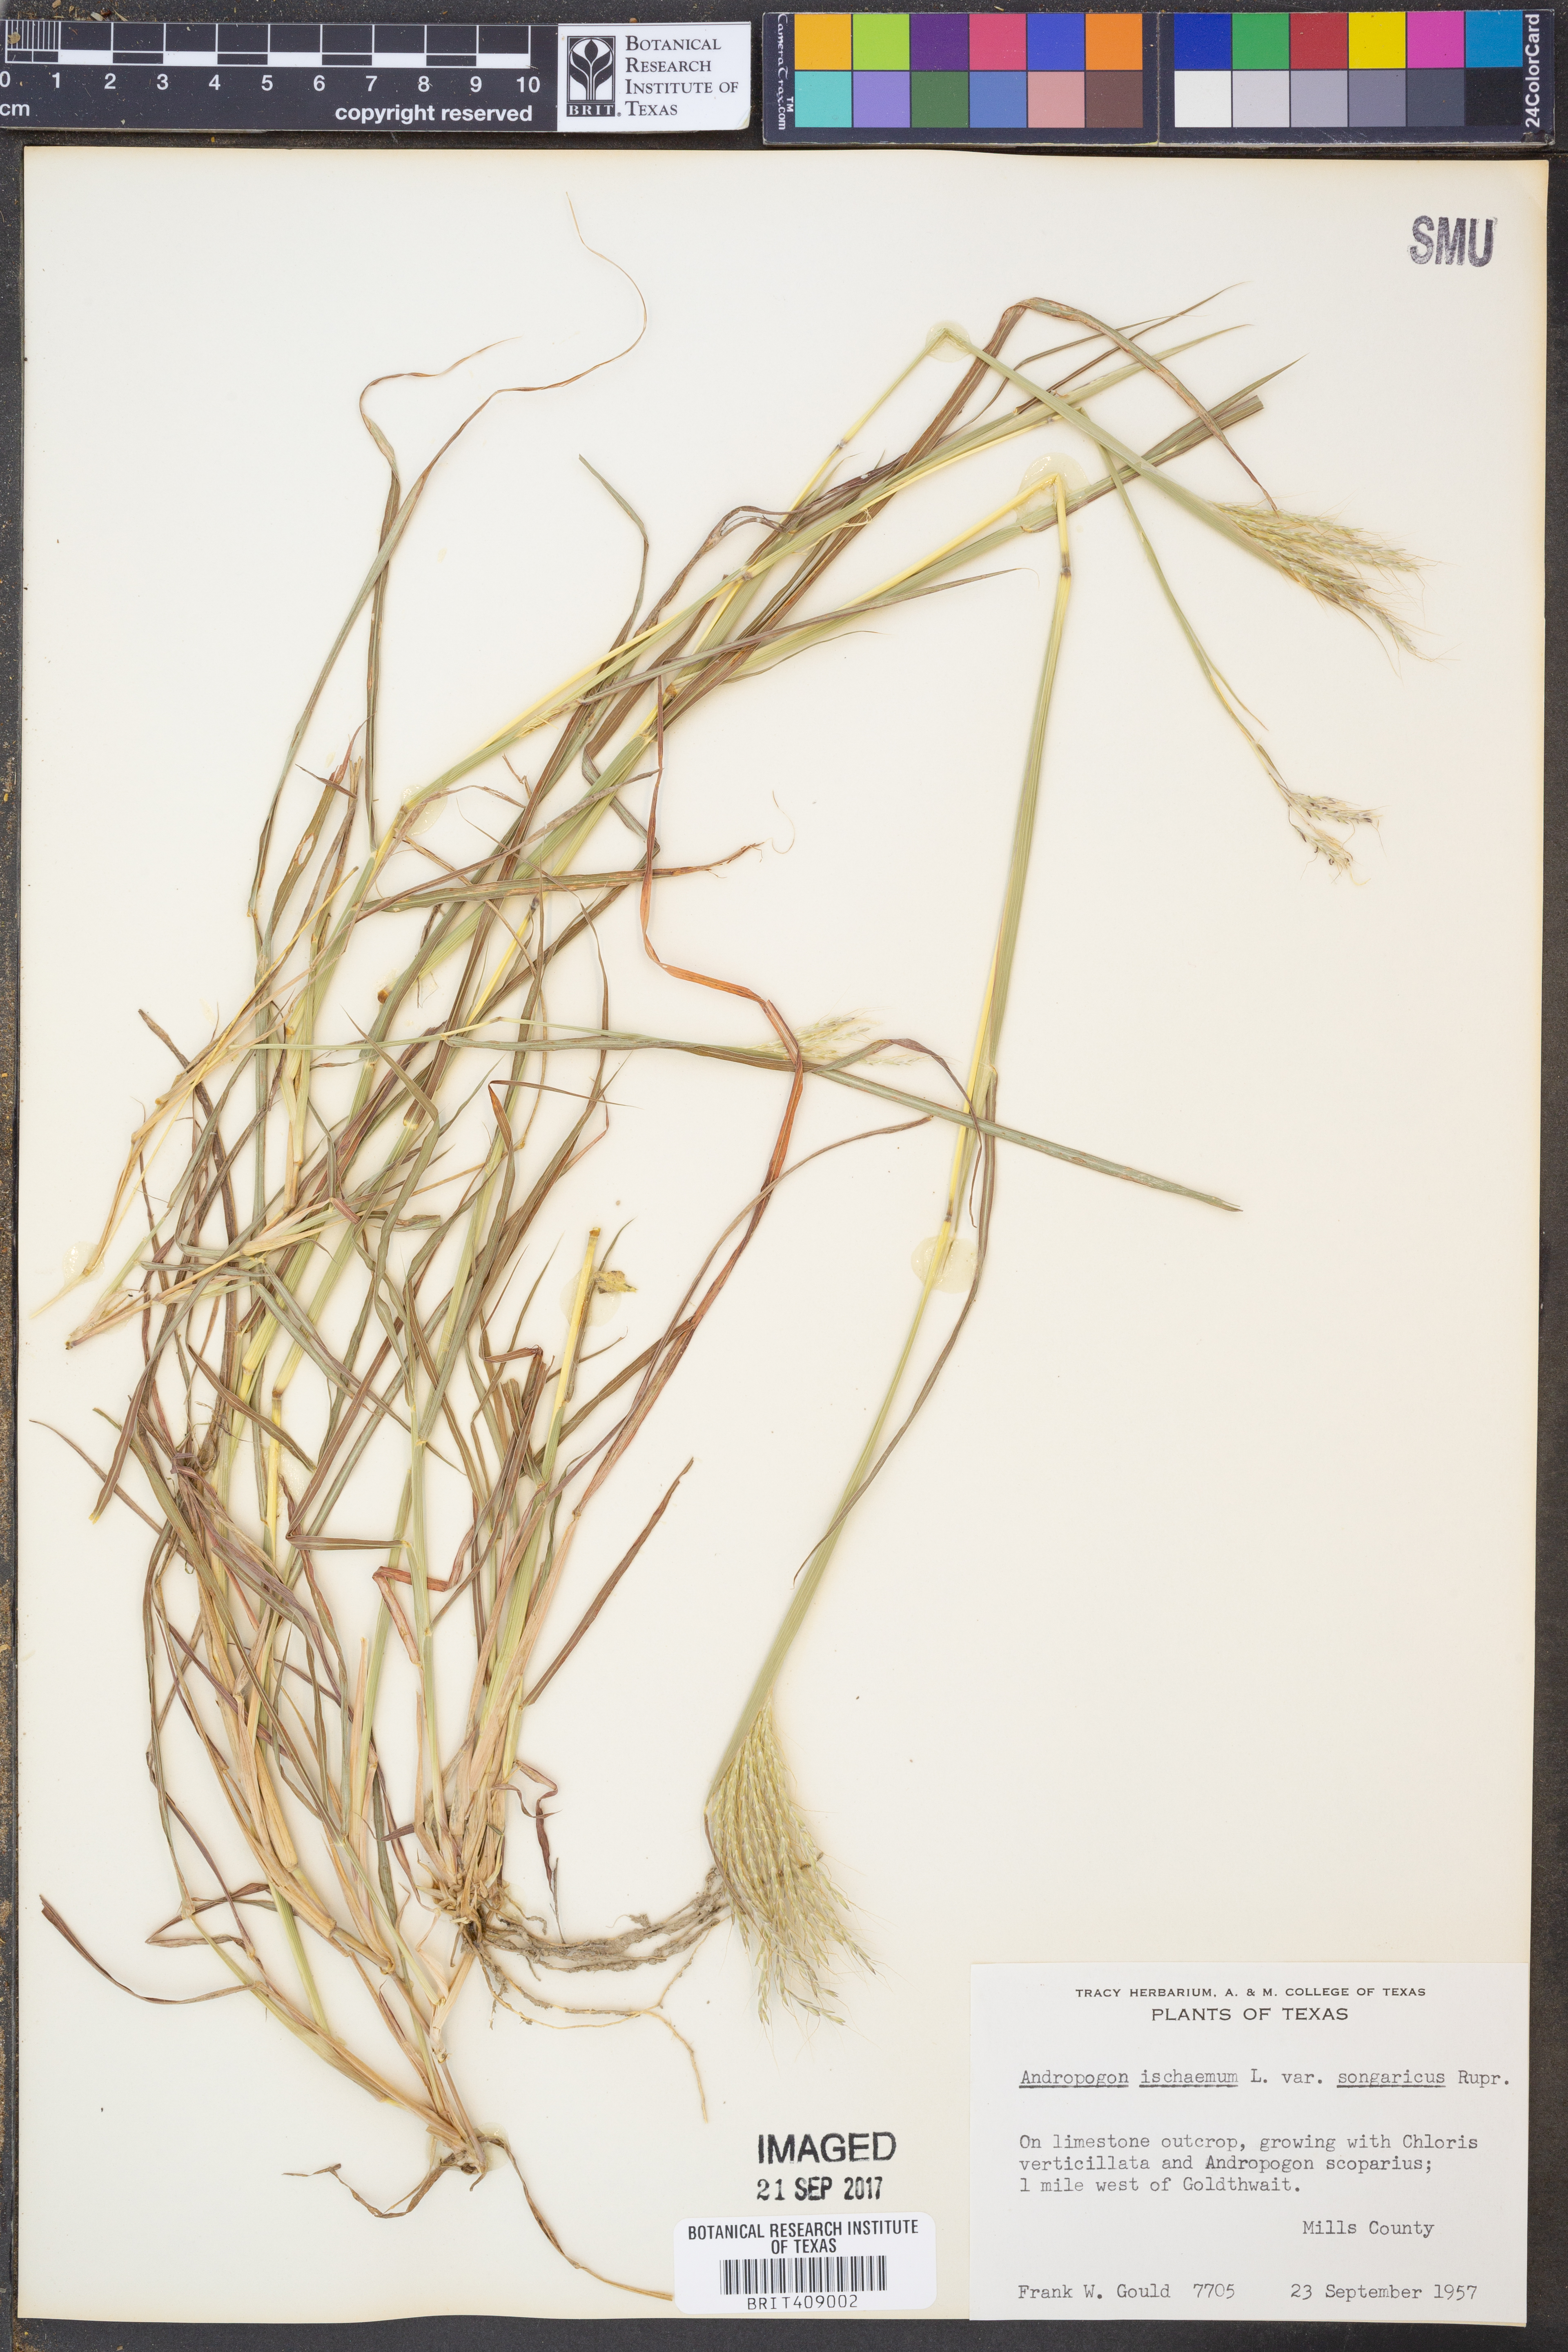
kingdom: Plantae
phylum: Tracheophyta
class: Liliopsida
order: Poales
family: Poaceae
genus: Bothriochloa
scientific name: Bothriochloa ischaemum
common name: Yellow bluestem
